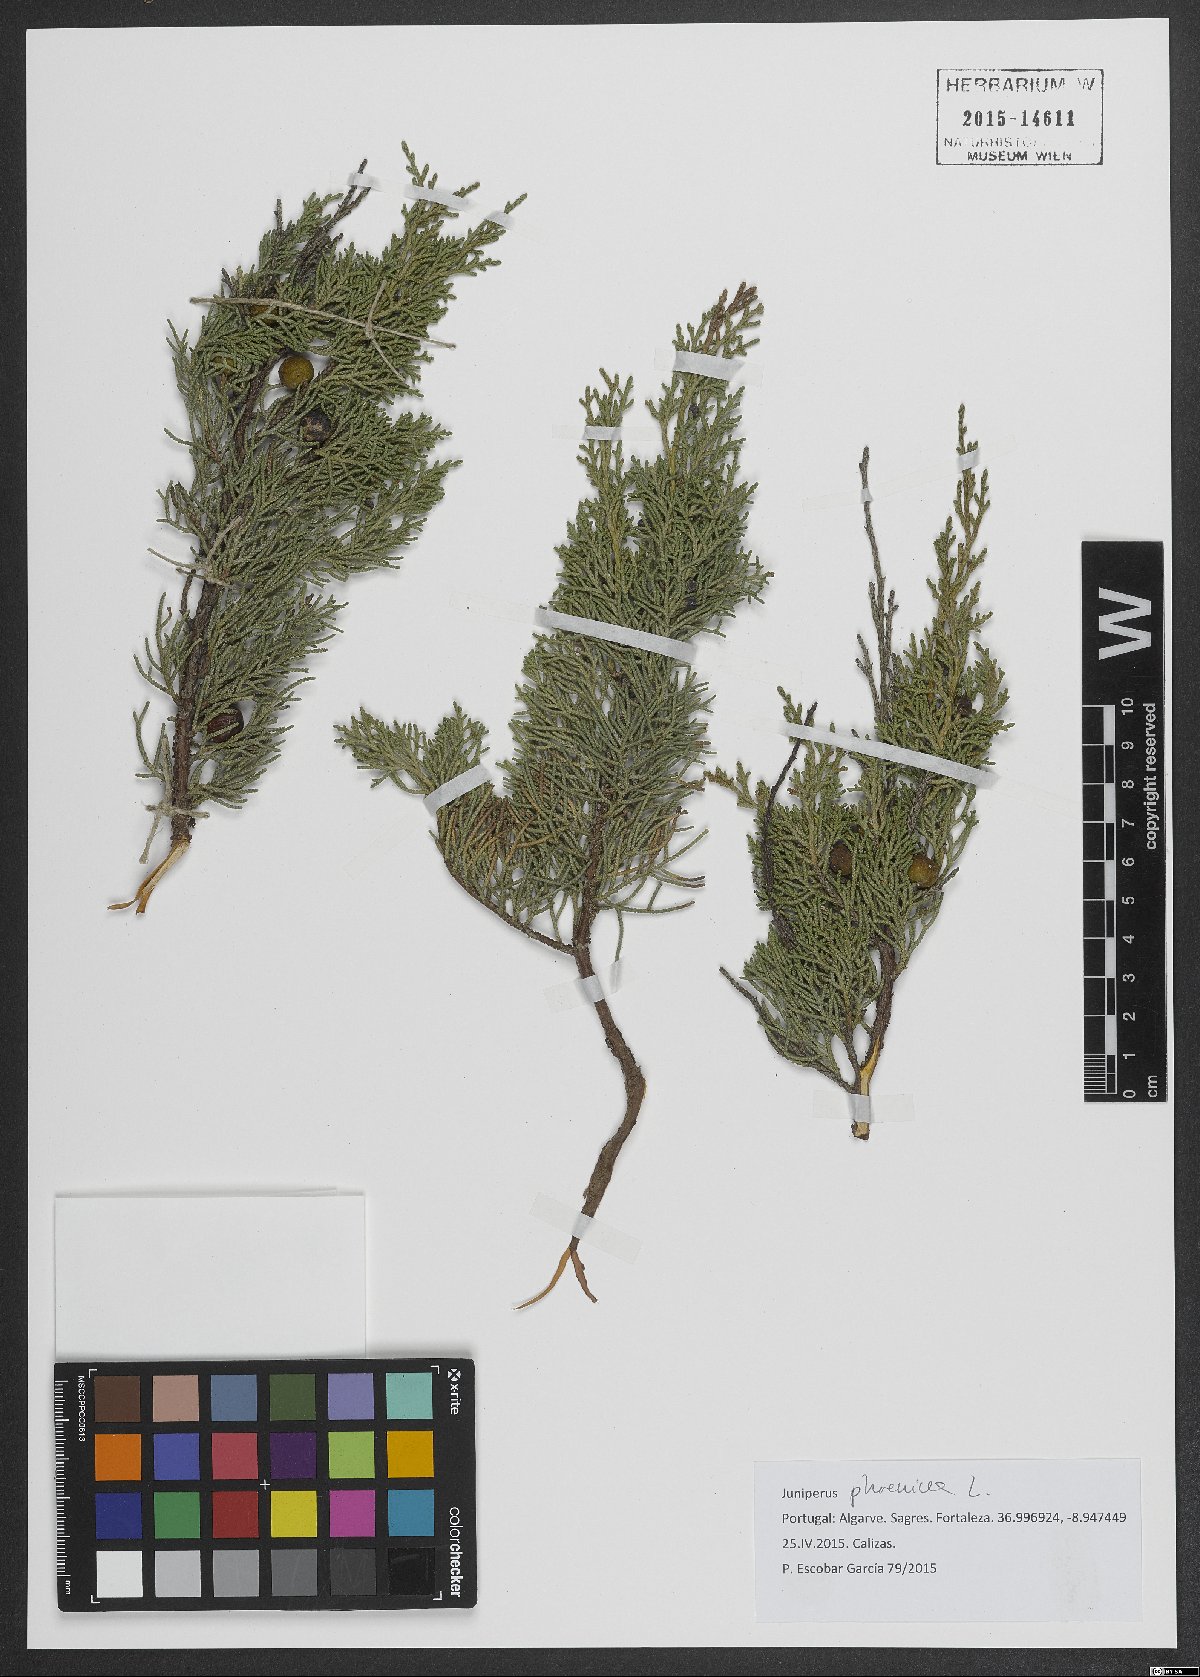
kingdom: Plantae
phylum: Tracheophyta
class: Pinopsida
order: Pinales
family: Cupressaceae
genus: Juniperus
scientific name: Juniperus phoenicea
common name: Phoenician juniper
